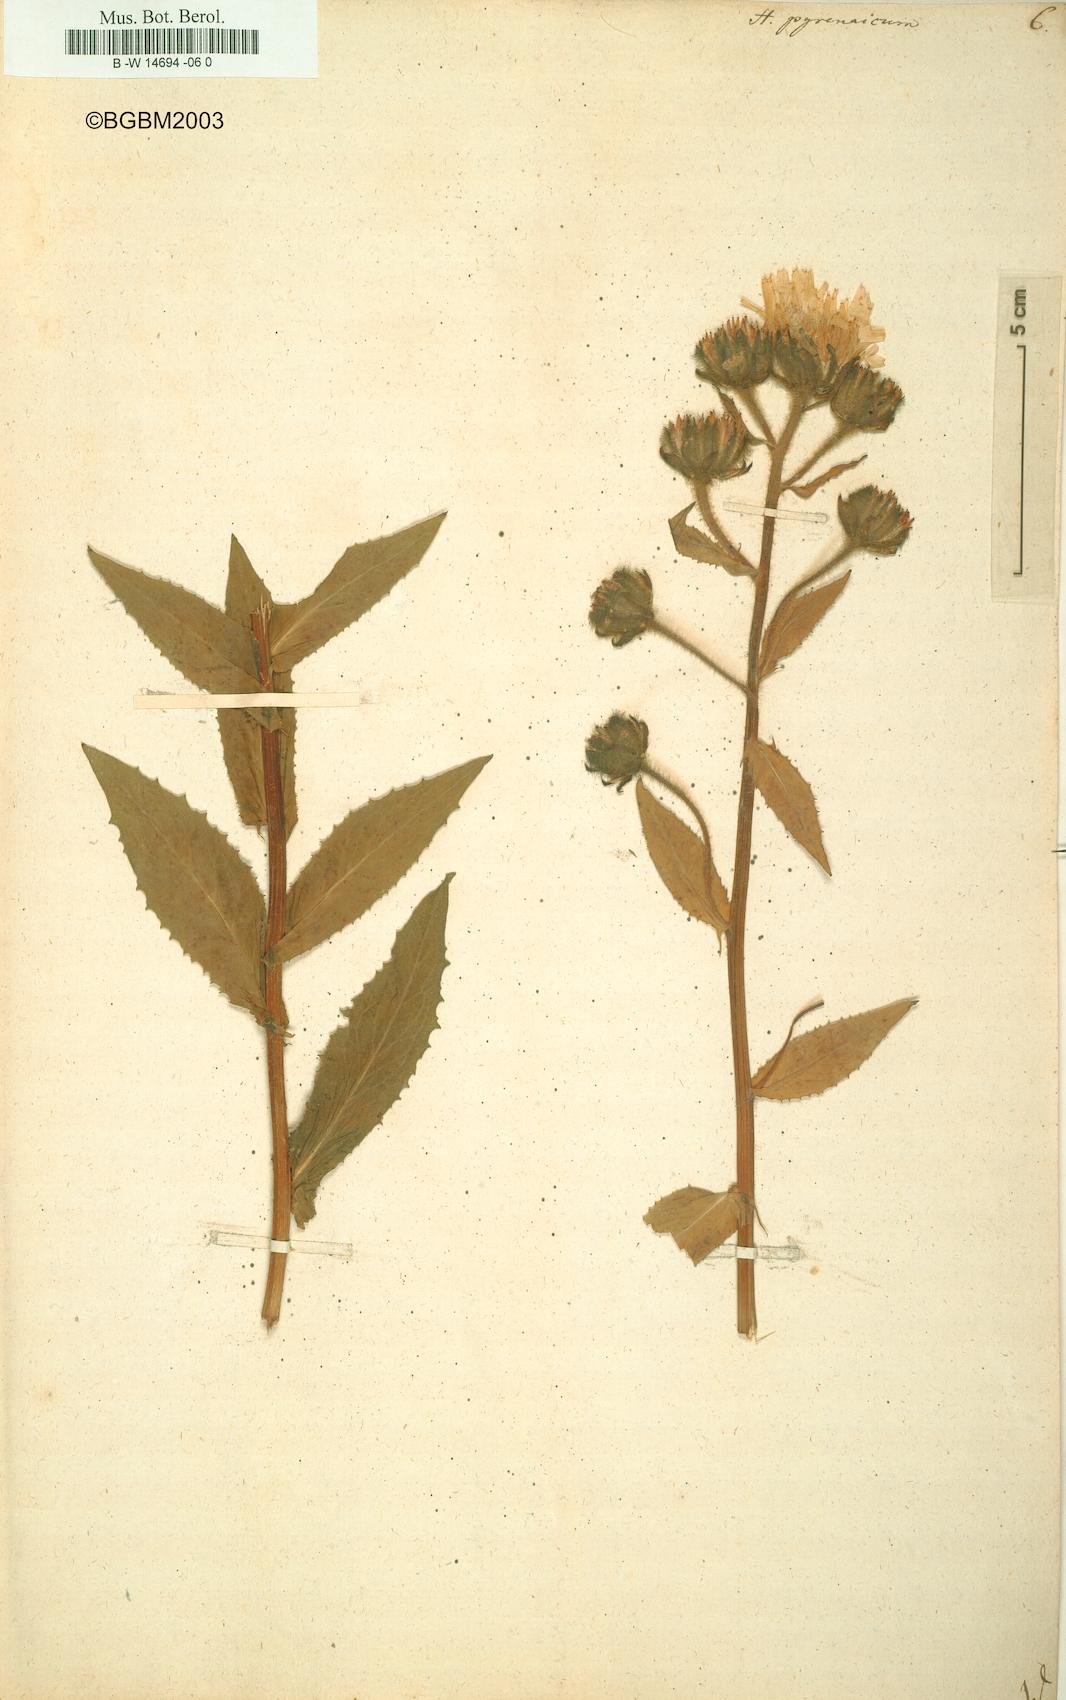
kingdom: Plantae
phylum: Tracheophyta
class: Magnoliopsida
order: Asterales
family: Asteraceae
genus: Hieracium
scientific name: Hieracium pyrenaicum
